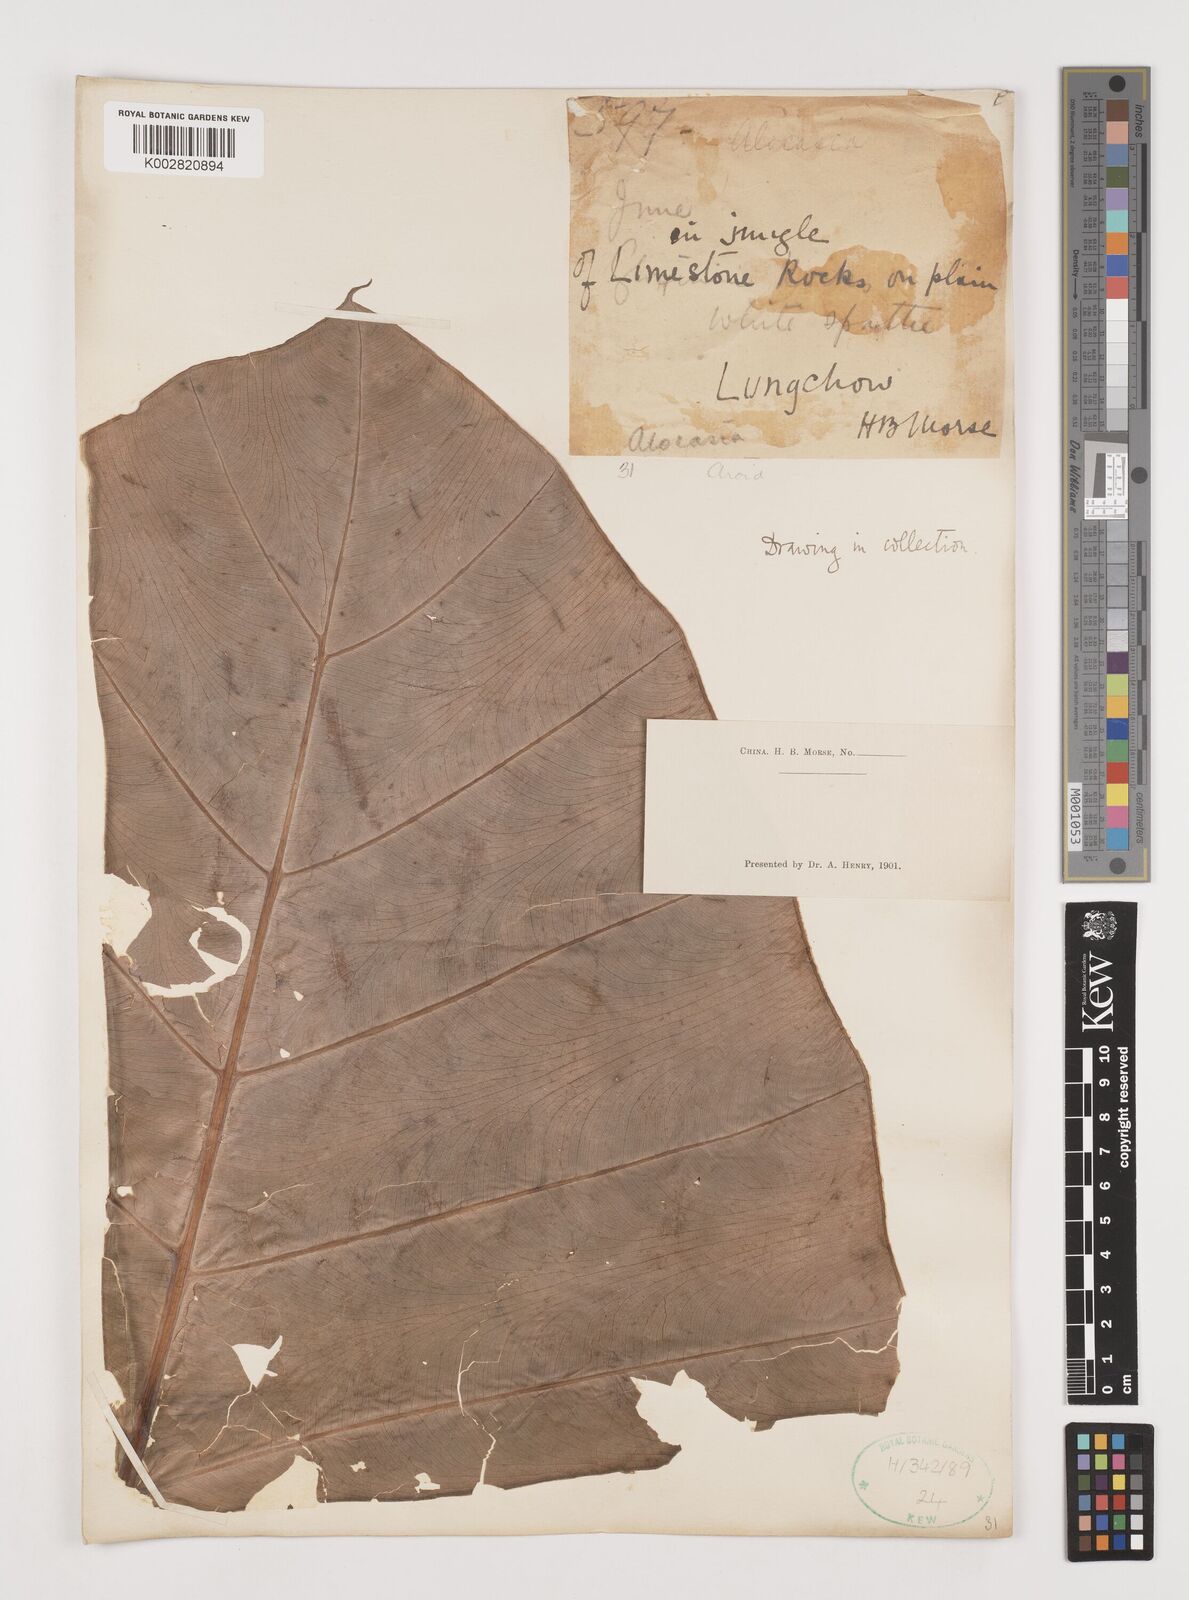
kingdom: Plantae
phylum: Tracheophyta
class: Liliopsida
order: Alismatales
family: Araceae
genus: Alocasia
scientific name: Alocasia
